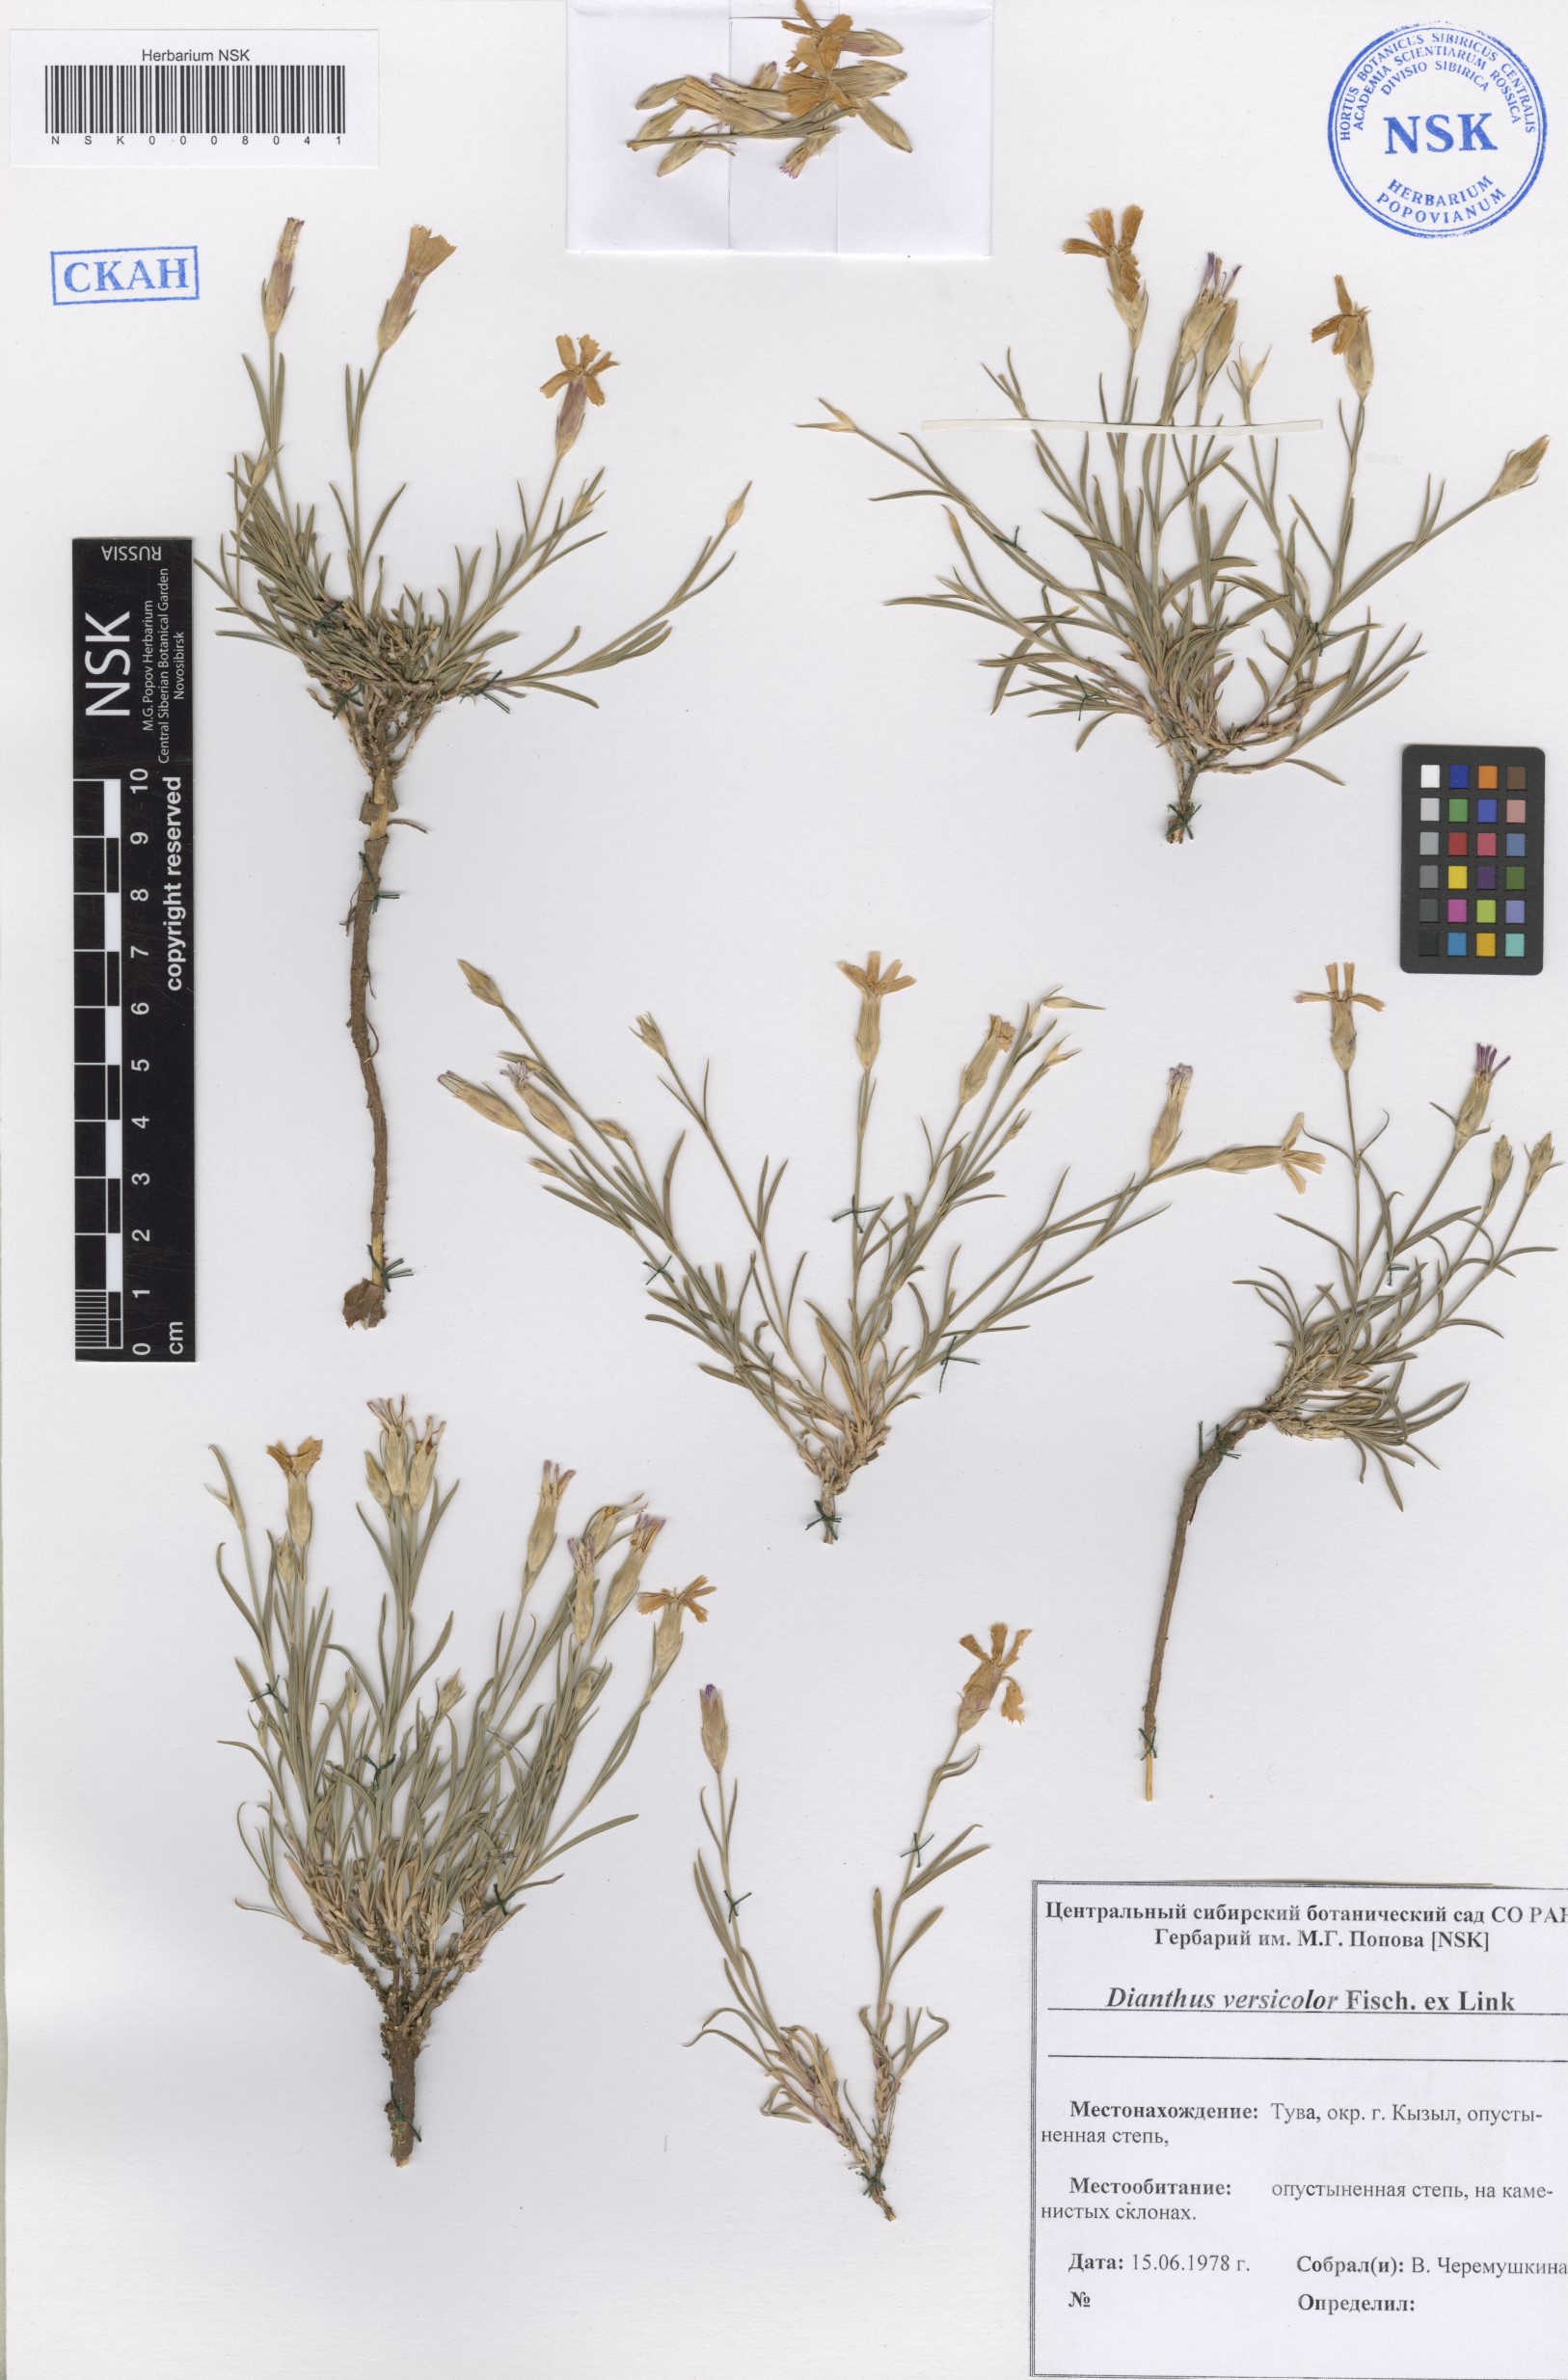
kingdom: Plantae
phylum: Tracheophyta
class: Magnoliopsida
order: Caryophyllales
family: Caryophyllaceae
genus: Dianthus
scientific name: Dianthus chinensis
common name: Rainbow pink
